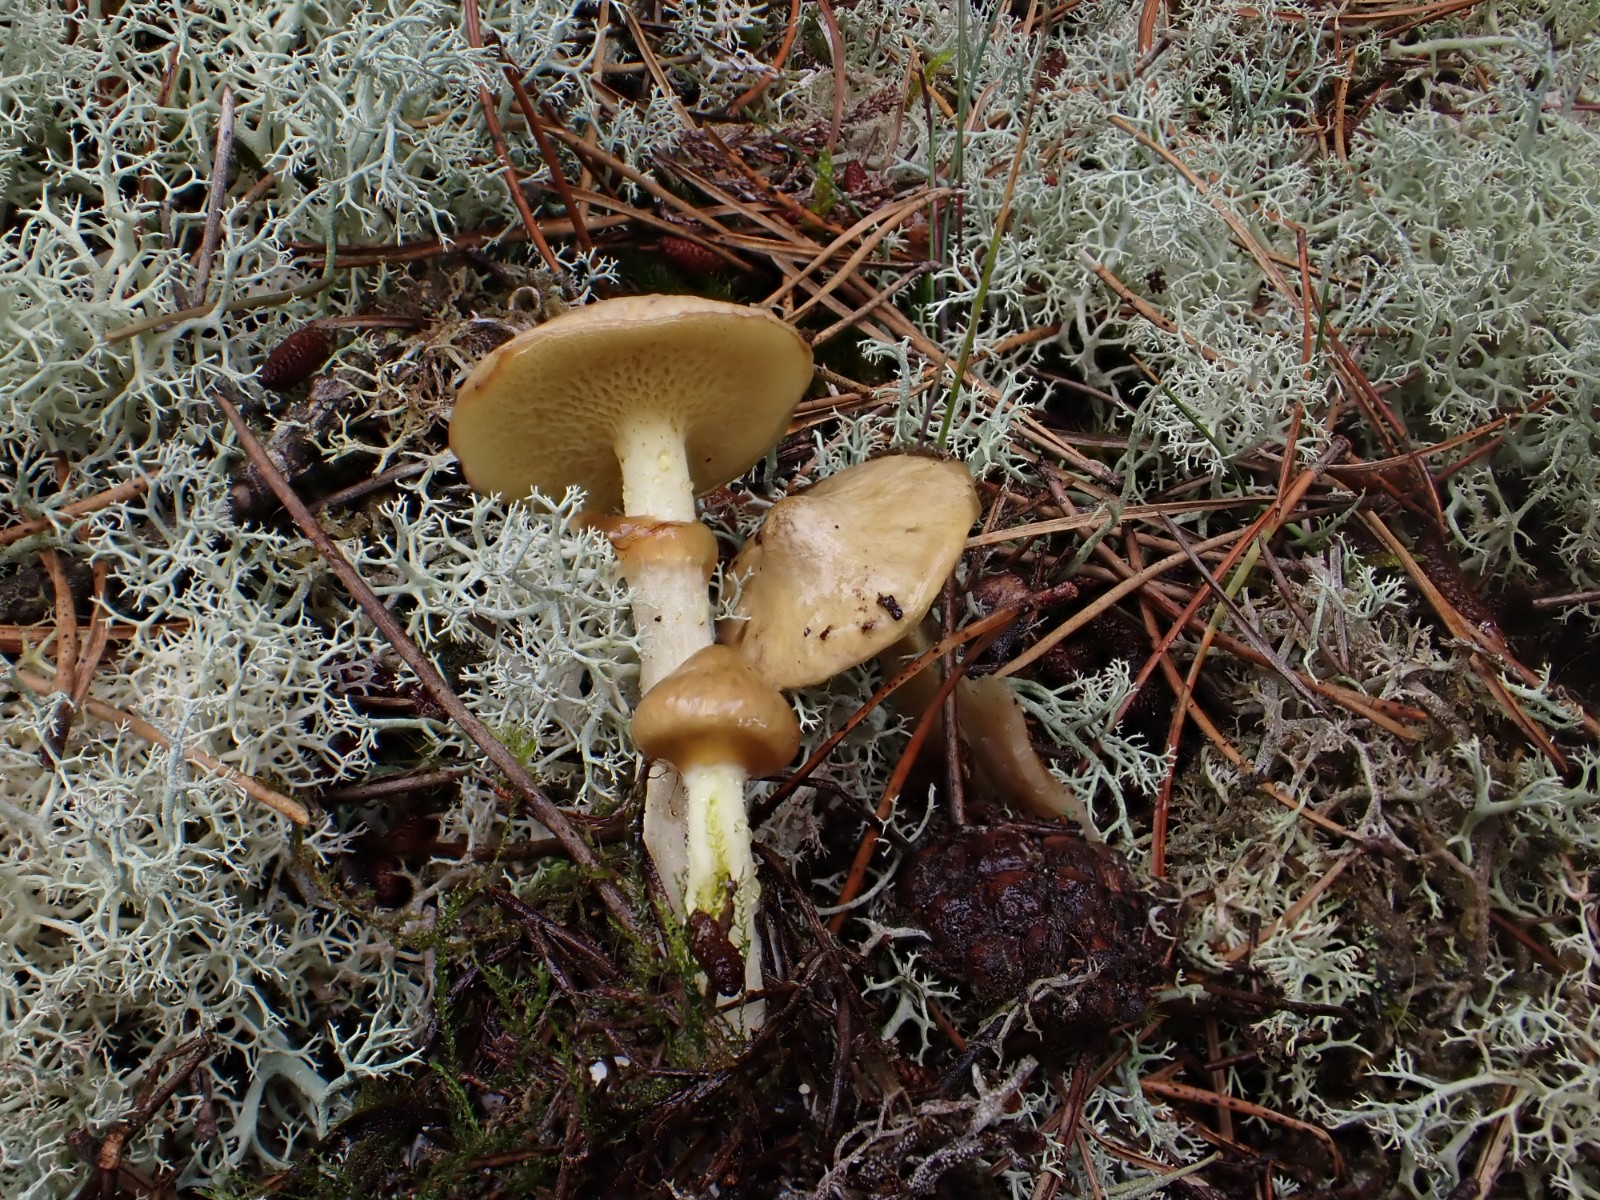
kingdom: Fungi
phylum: Basidiomycota
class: Agaricomycetes
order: Boletales
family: Suillaceae
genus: Suillus
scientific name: Suillus flavidus
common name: mose-slimrørhat
